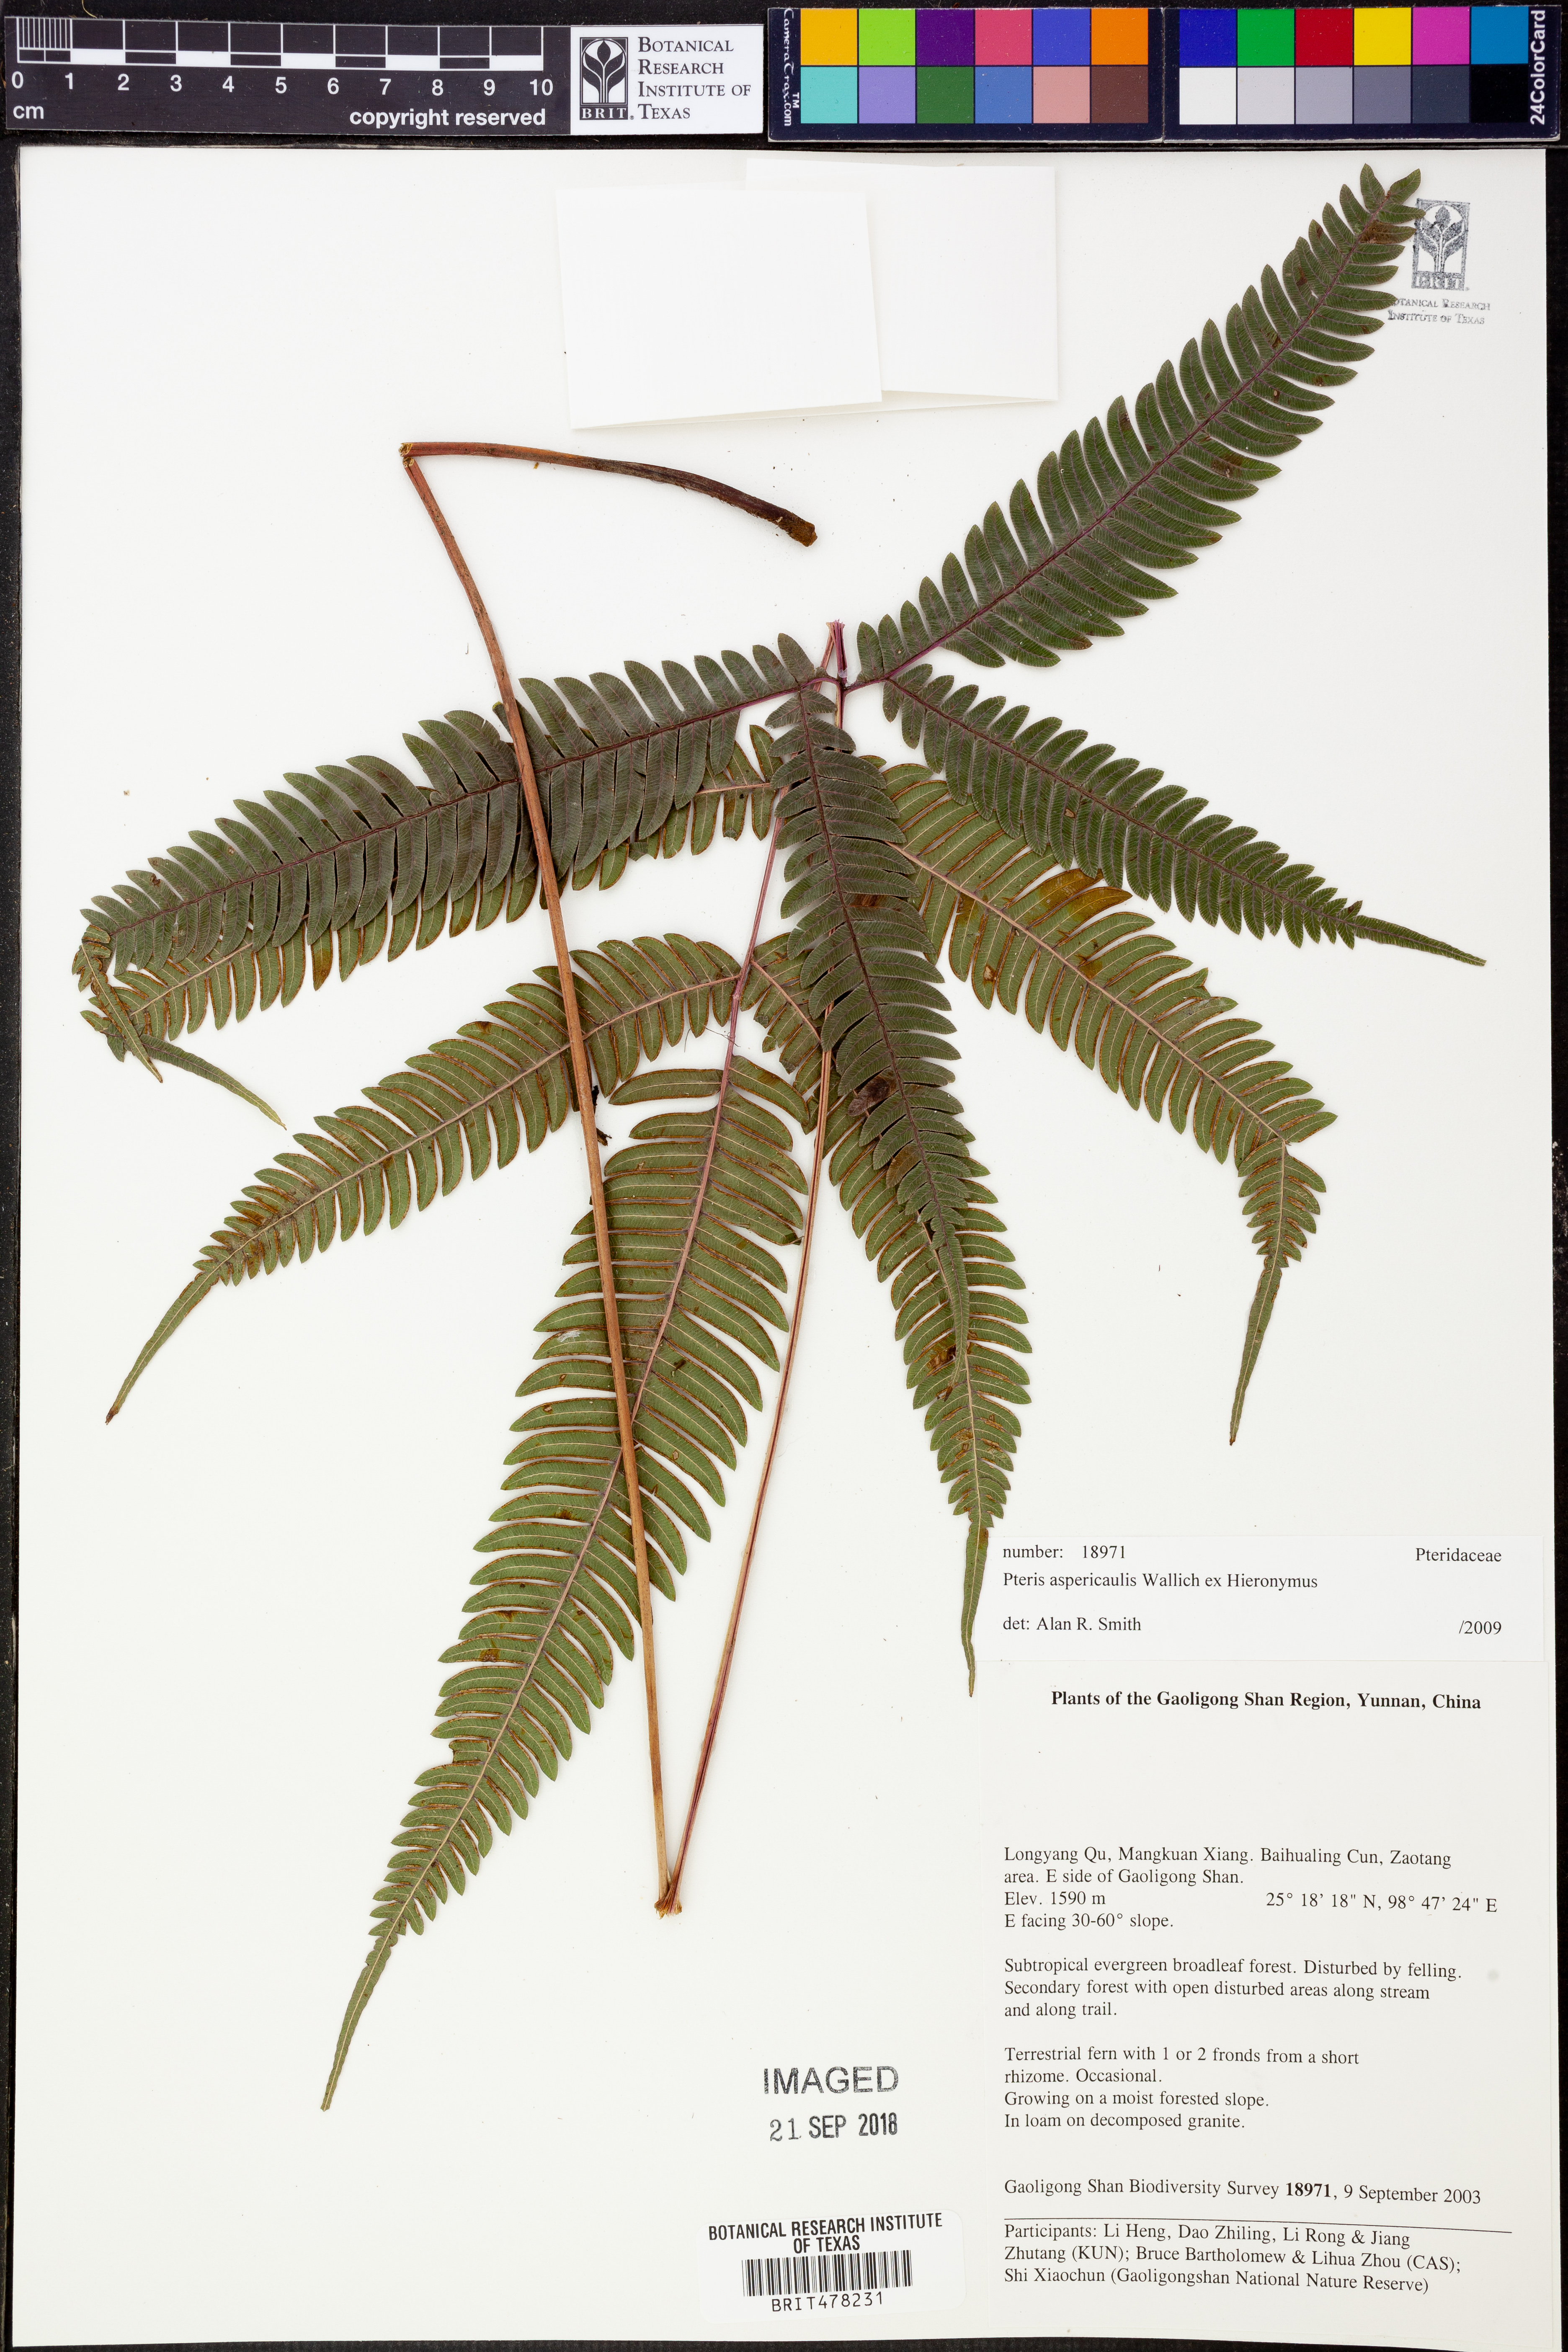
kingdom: Plantae
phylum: Tracheophyta
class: Polypodiopsida
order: Polypodiales
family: Pteridaceae
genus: Pteris
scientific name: Pteris aspericaulis
